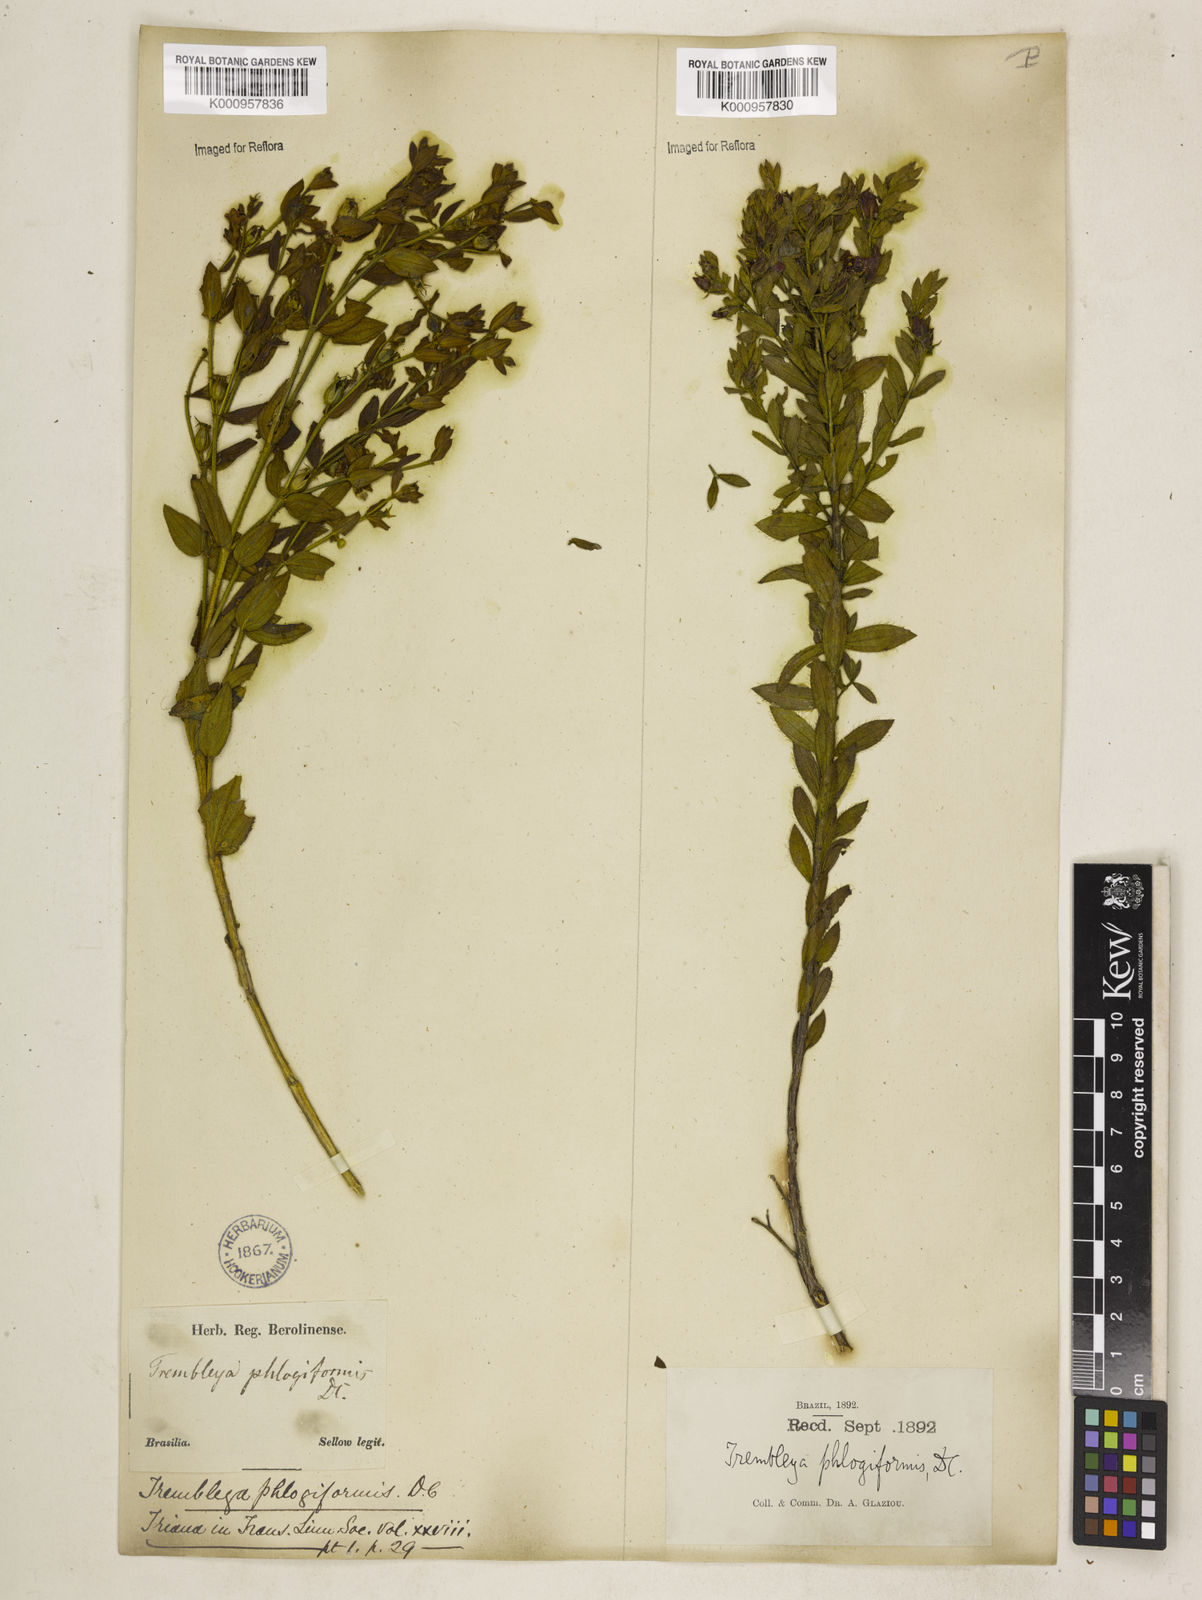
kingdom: Plantae
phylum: Tracheophyta
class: Magnoliopsida
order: Myrtales
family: Melastomataceae
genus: Microlicia
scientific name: Microlicia phlogiformis
